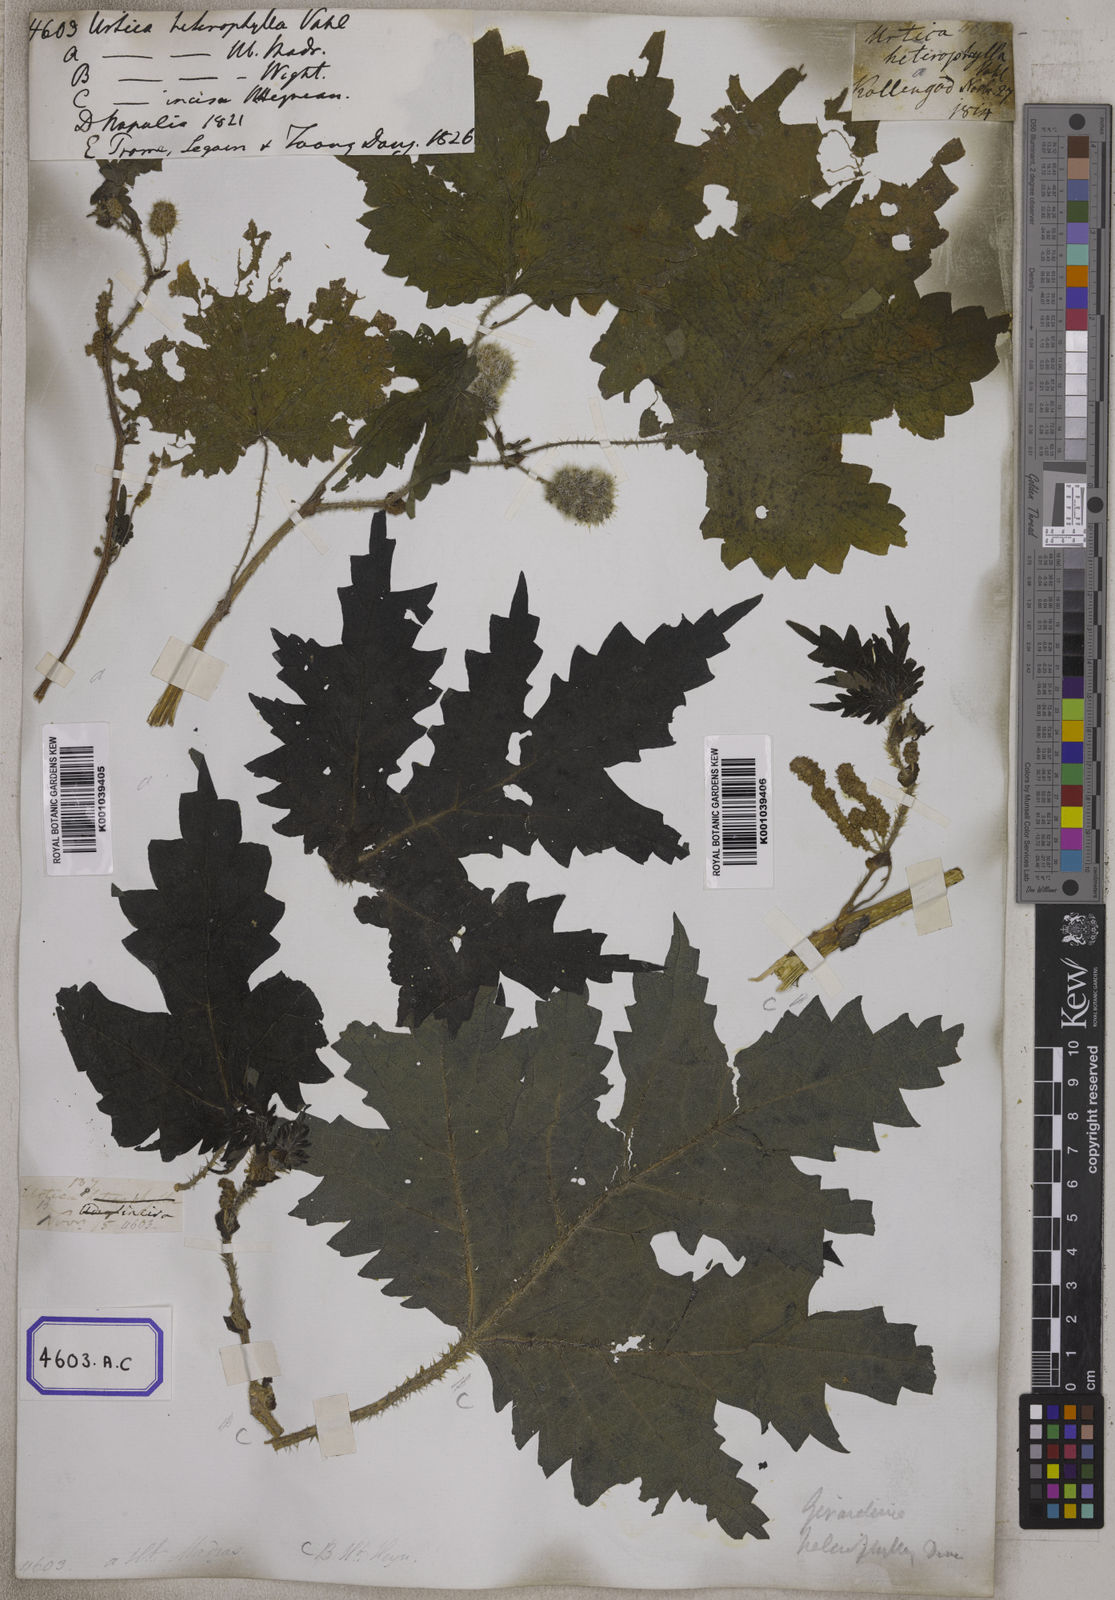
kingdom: Plantae
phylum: Tracheophyta
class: Magnoliopsida
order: Rosales
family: Urticaceae
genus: Girardinia
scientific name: Girardinia diversifolia
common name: Himalayan-nettle
